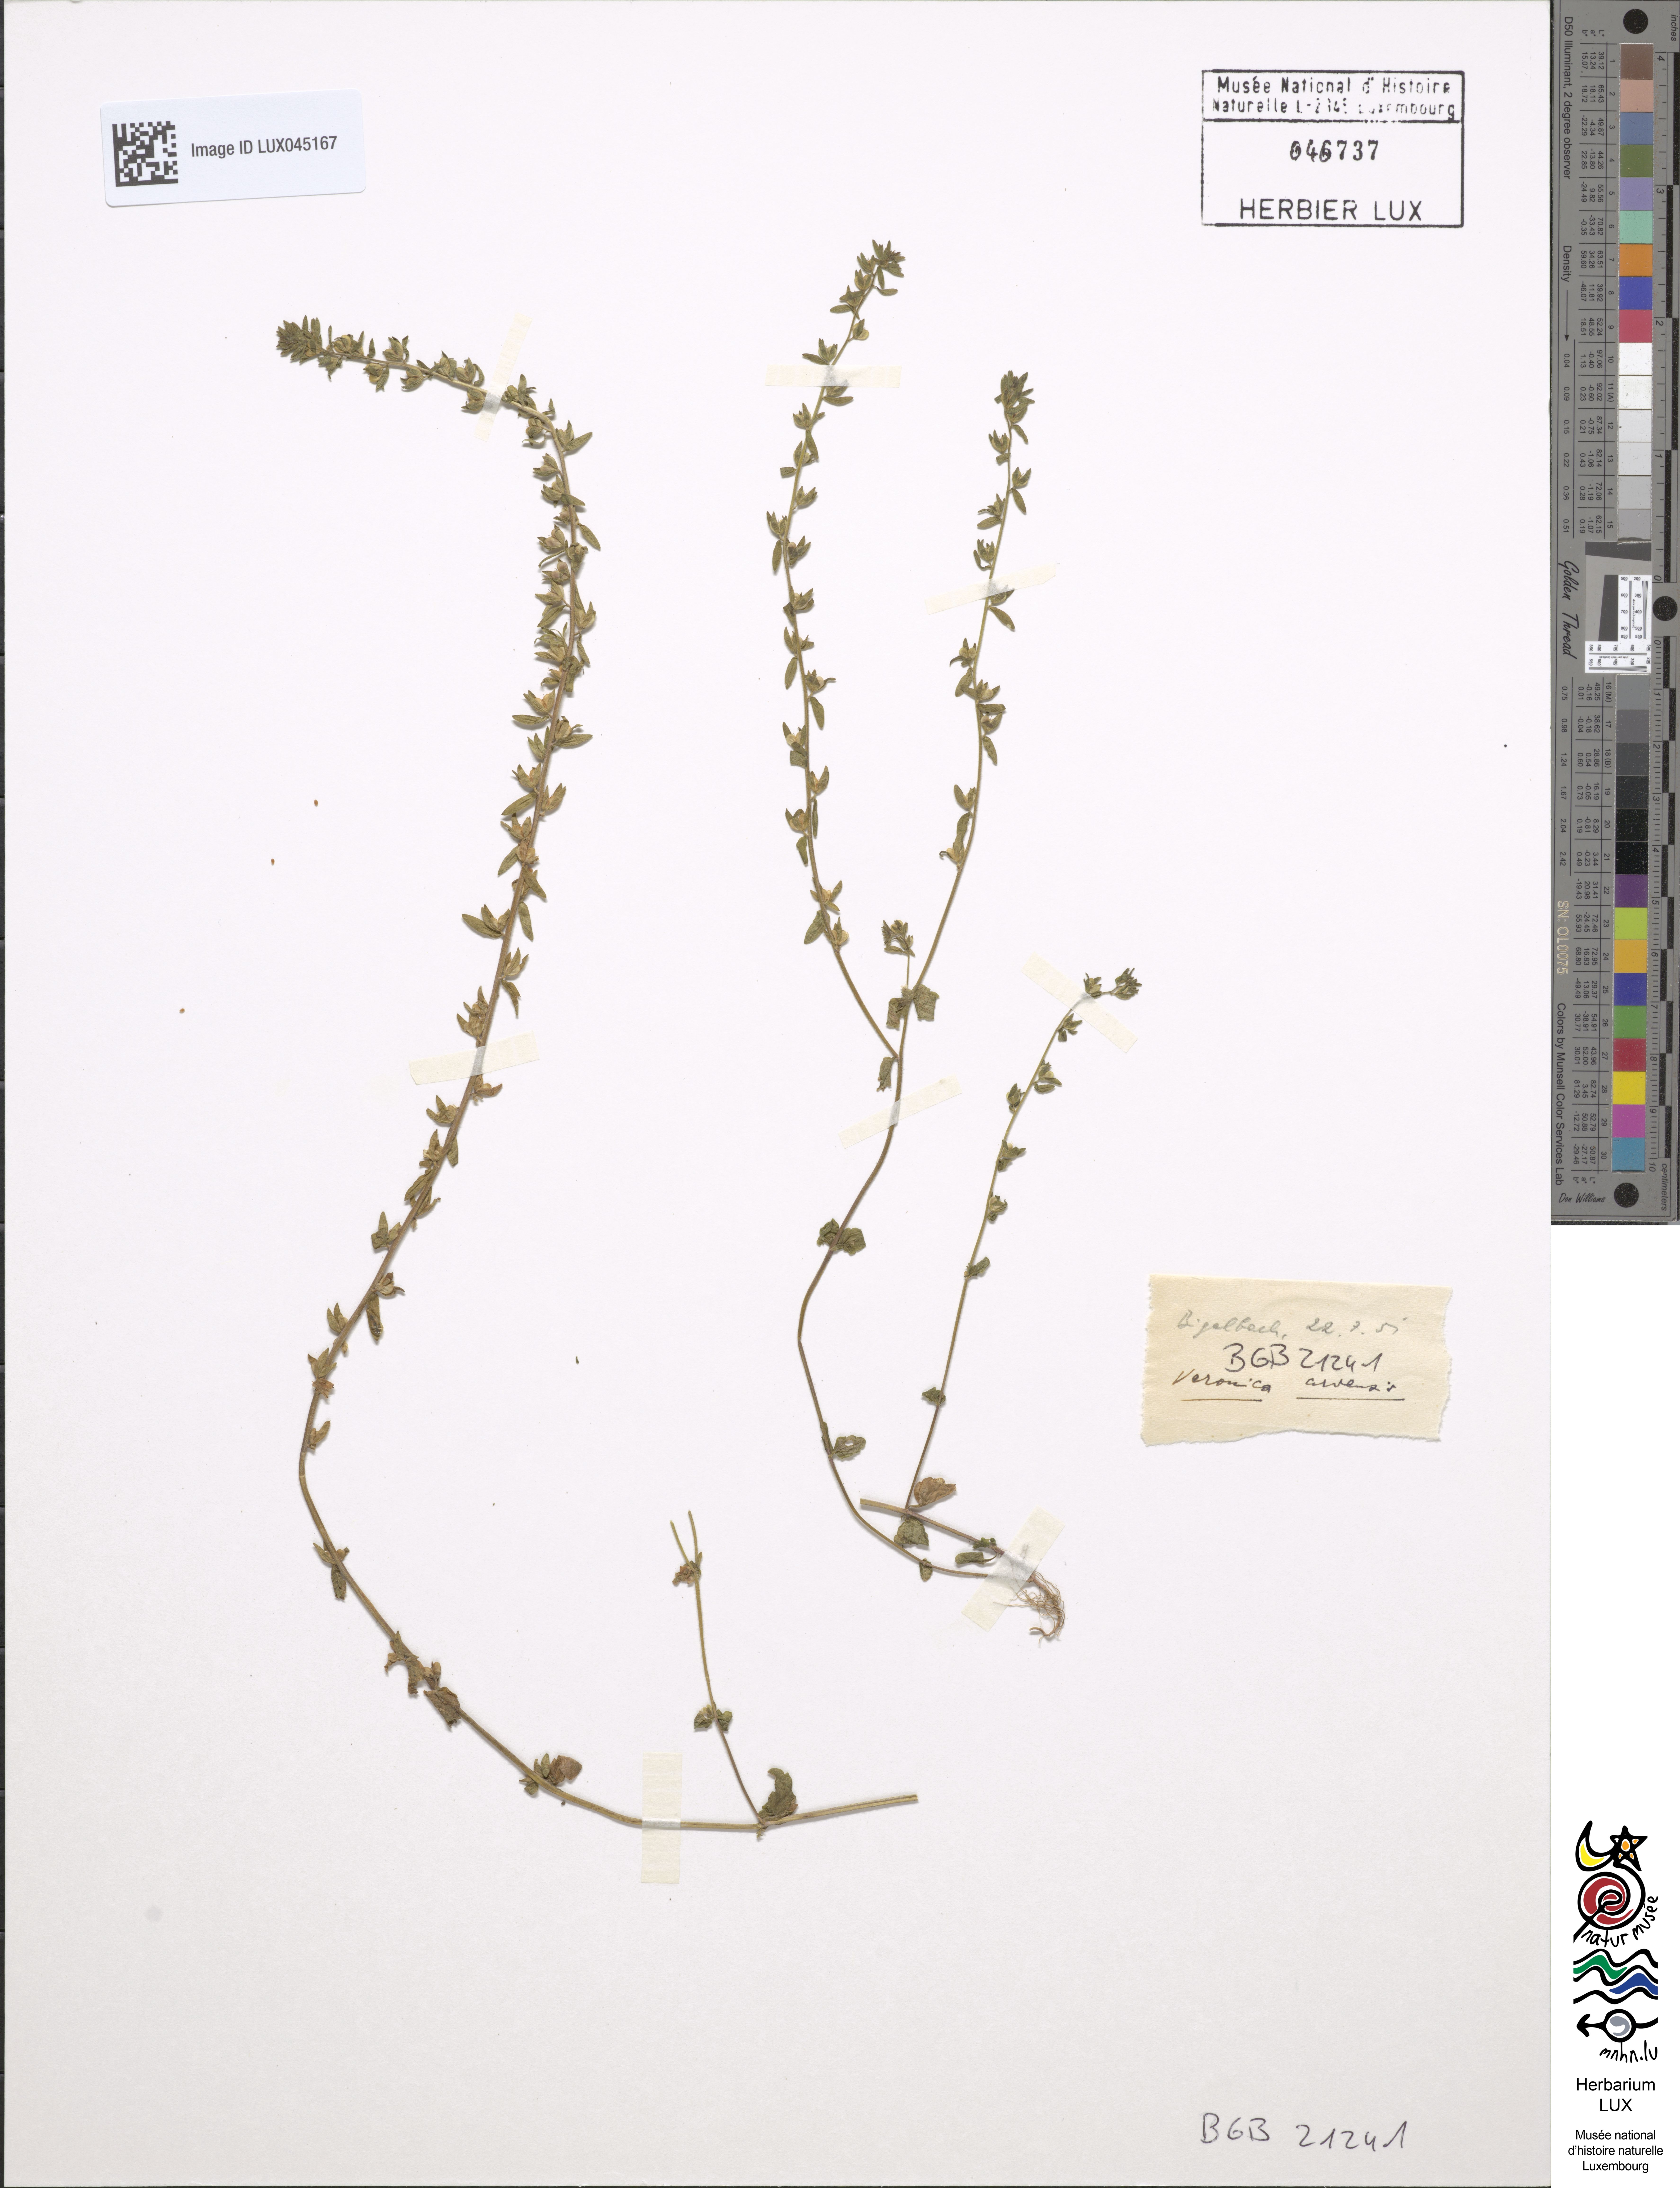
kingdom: Plantae
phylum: Tracheophyta
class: Magnoliopsida
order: Lamiales
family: Plantaginaceae
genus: Veronica
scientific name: Veronica arvensis
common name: Corn speedwell
